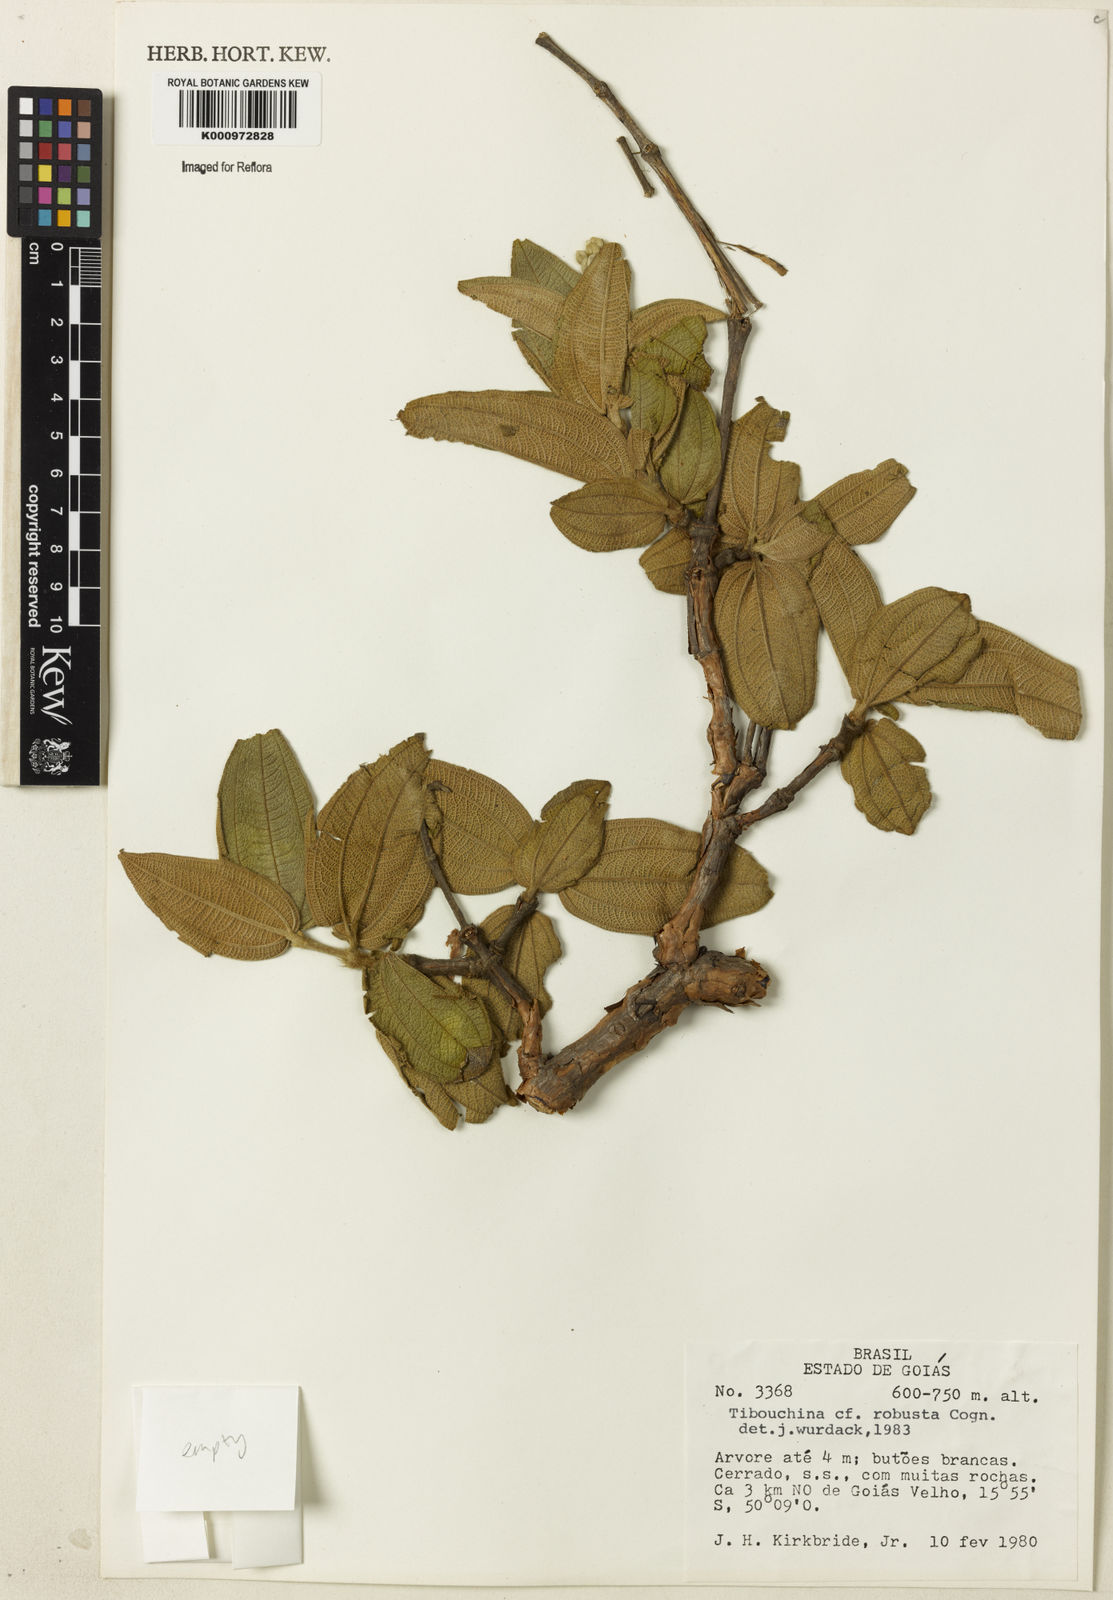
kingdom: Plantae
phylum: Tracheophyta
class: Magnoliopsida
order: Myrtales
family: Melastomataceae
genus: Pleroma
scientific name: Pleroma robustum
